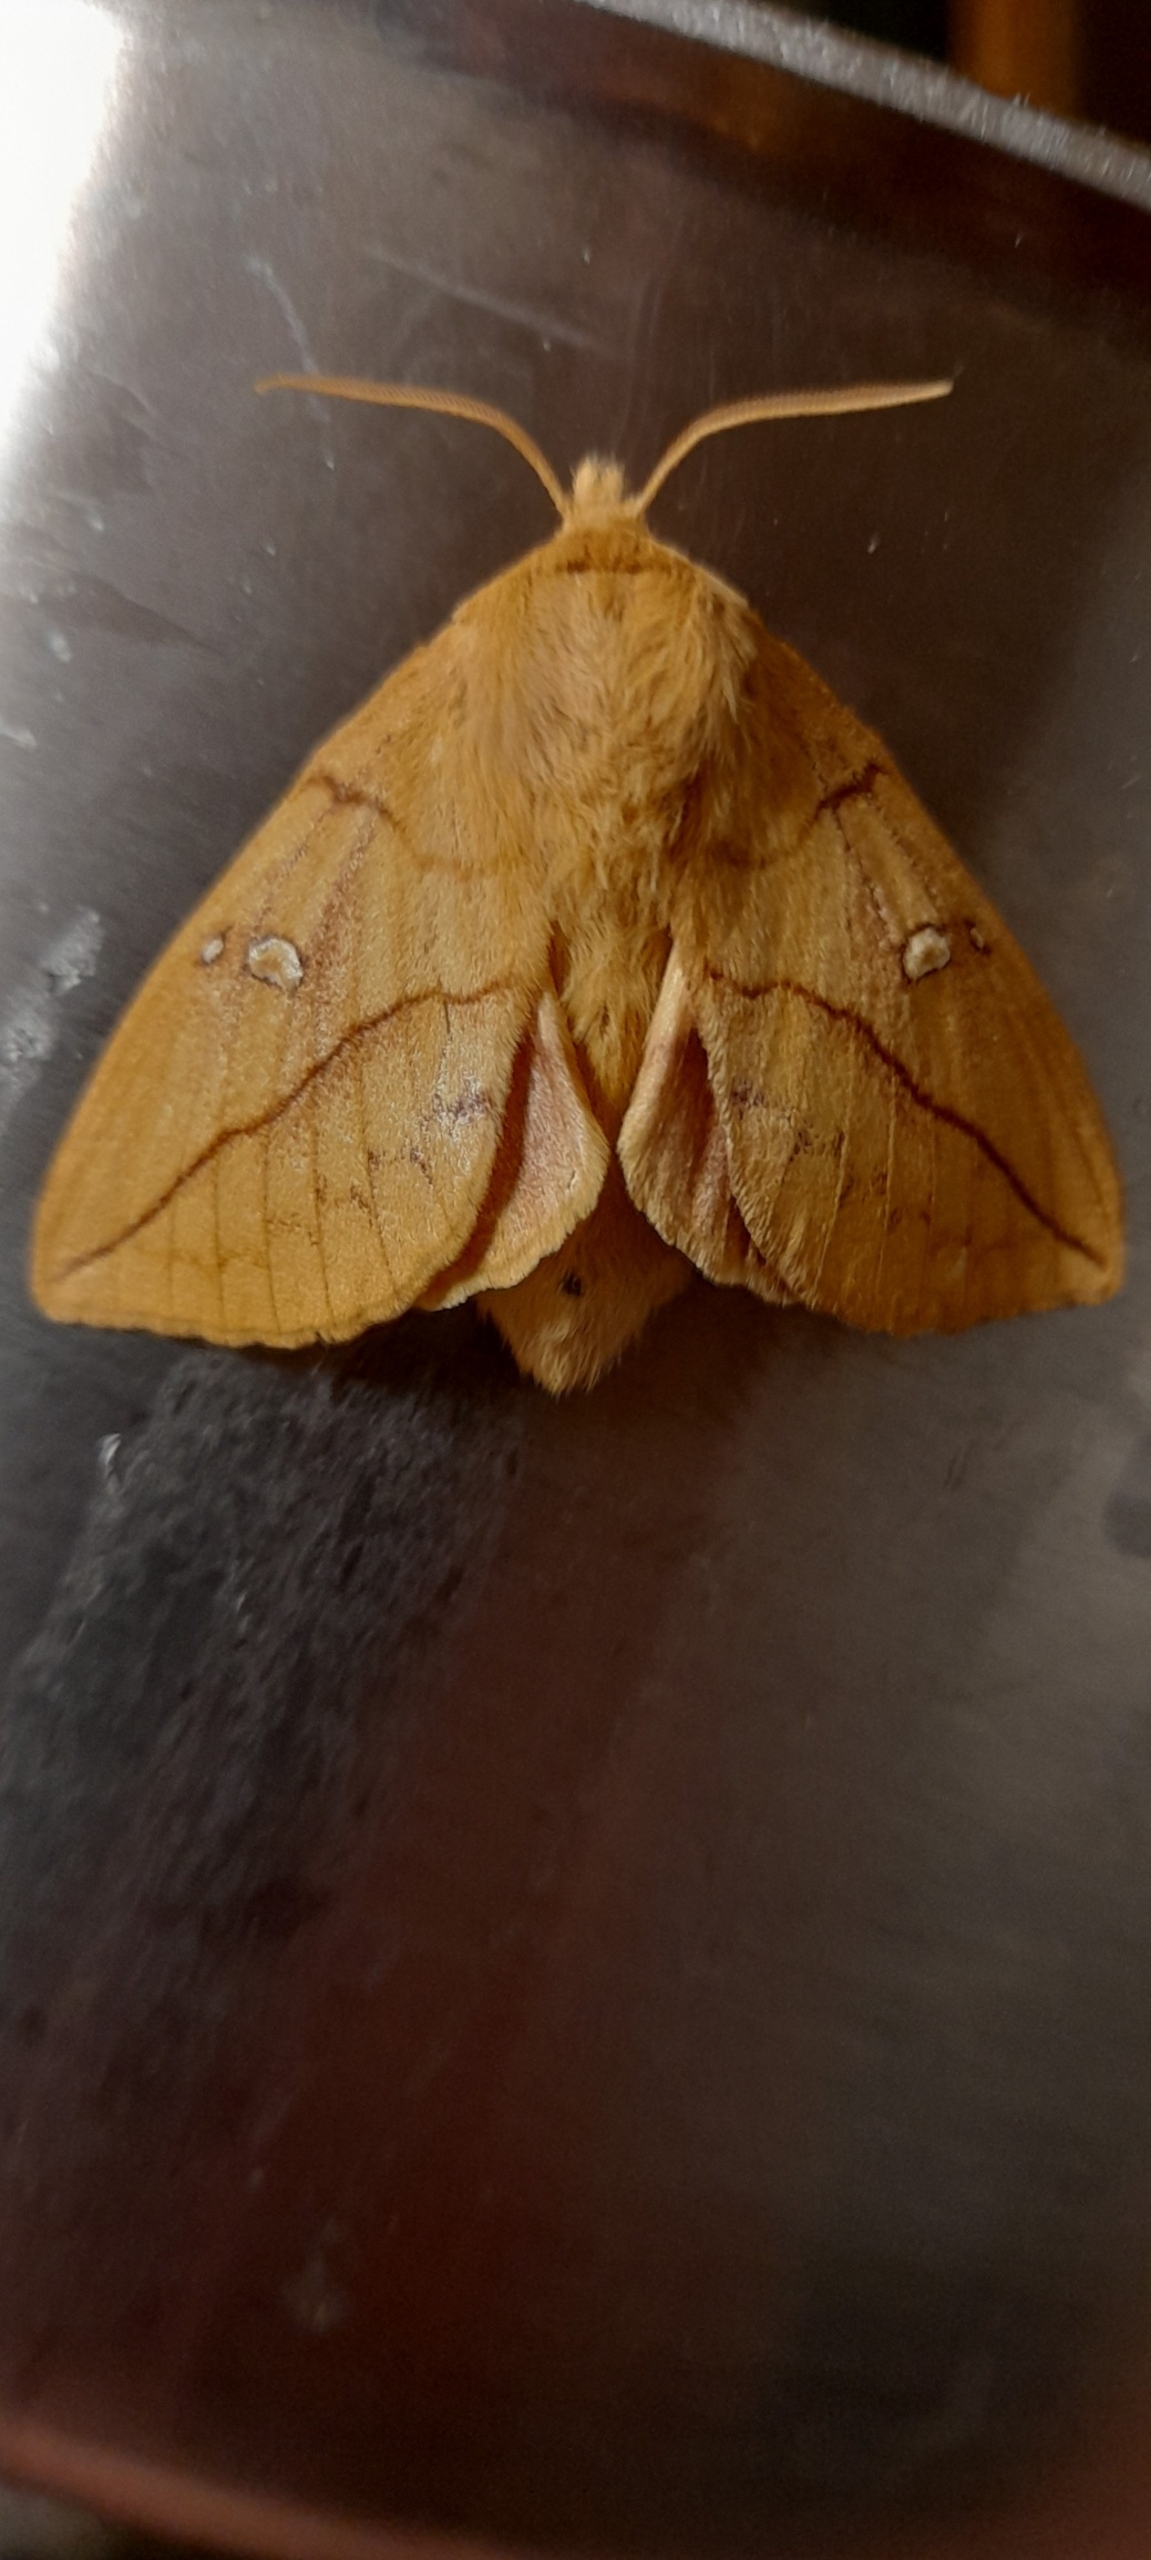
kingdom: Animalia
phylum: Arthropoda
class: Insecta
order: Lepidoptera
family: Lasiocampidae
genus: Euthrix
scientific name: Euthrix potatoria
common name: Græsspinder
